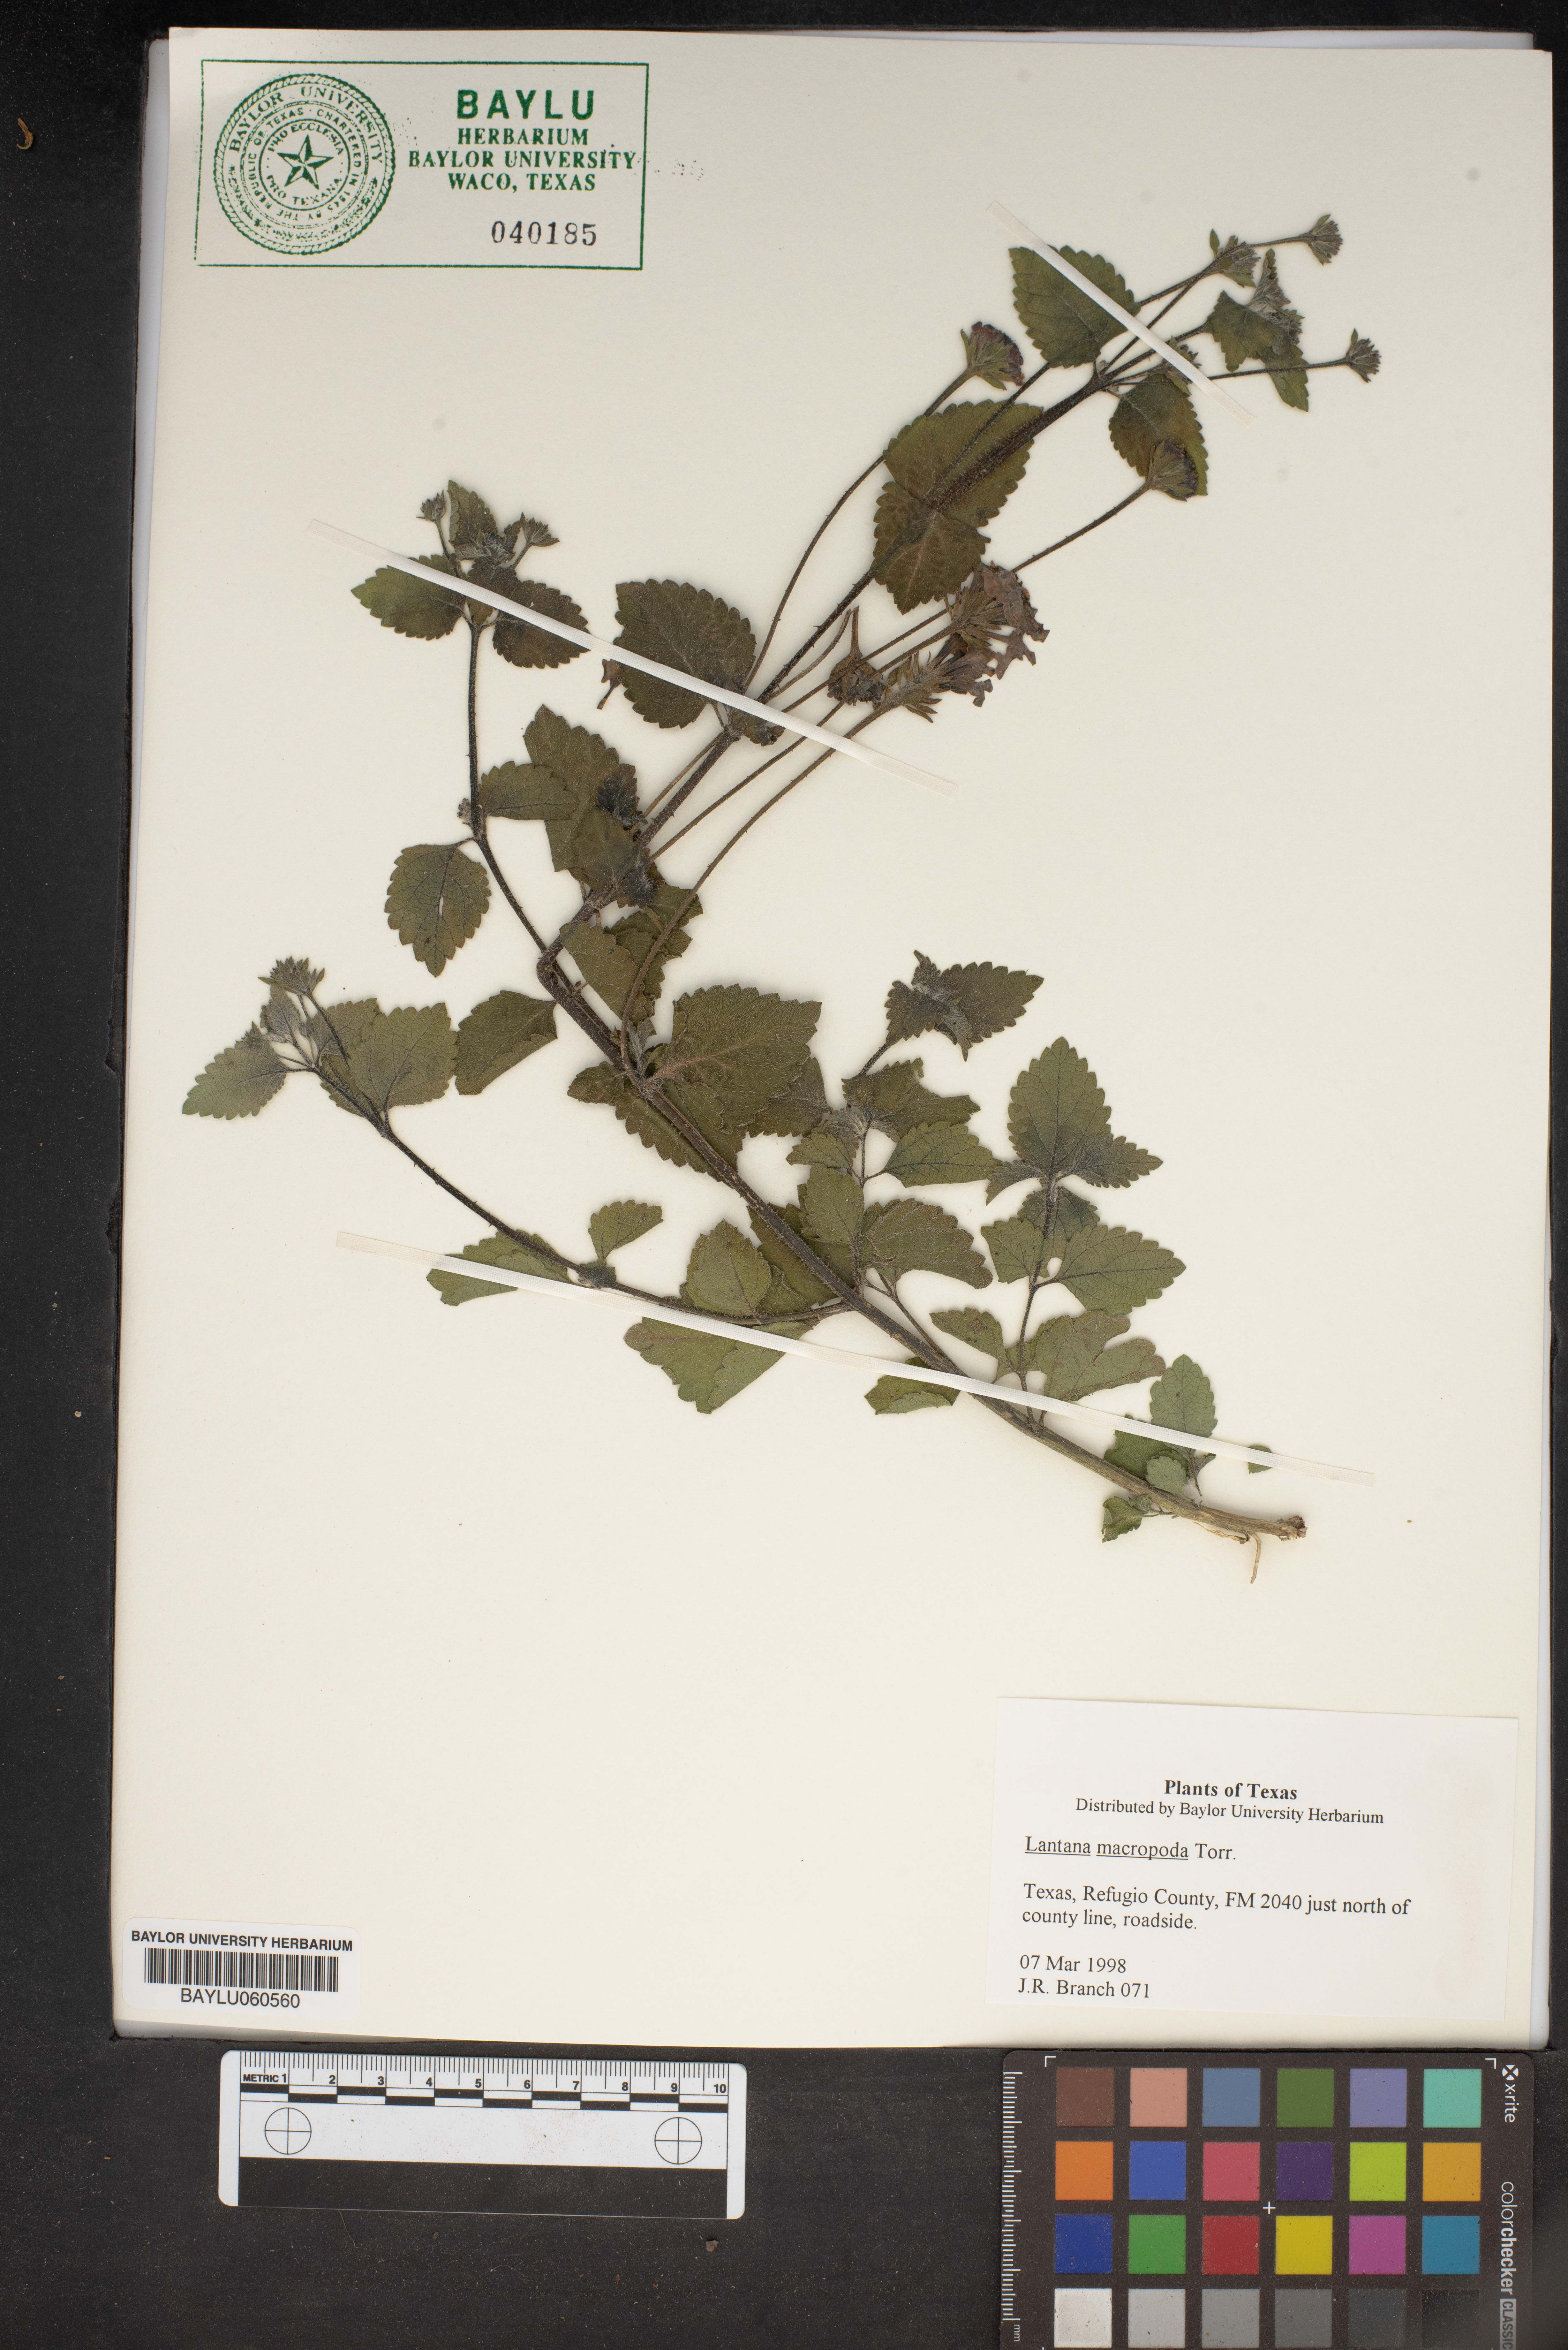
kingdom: Plantae
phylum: Tracheophyta
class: Magnoliopsida
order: Lamiales
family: Verbenaceae
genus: Lantana
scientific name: Lantana achyranthifolia
